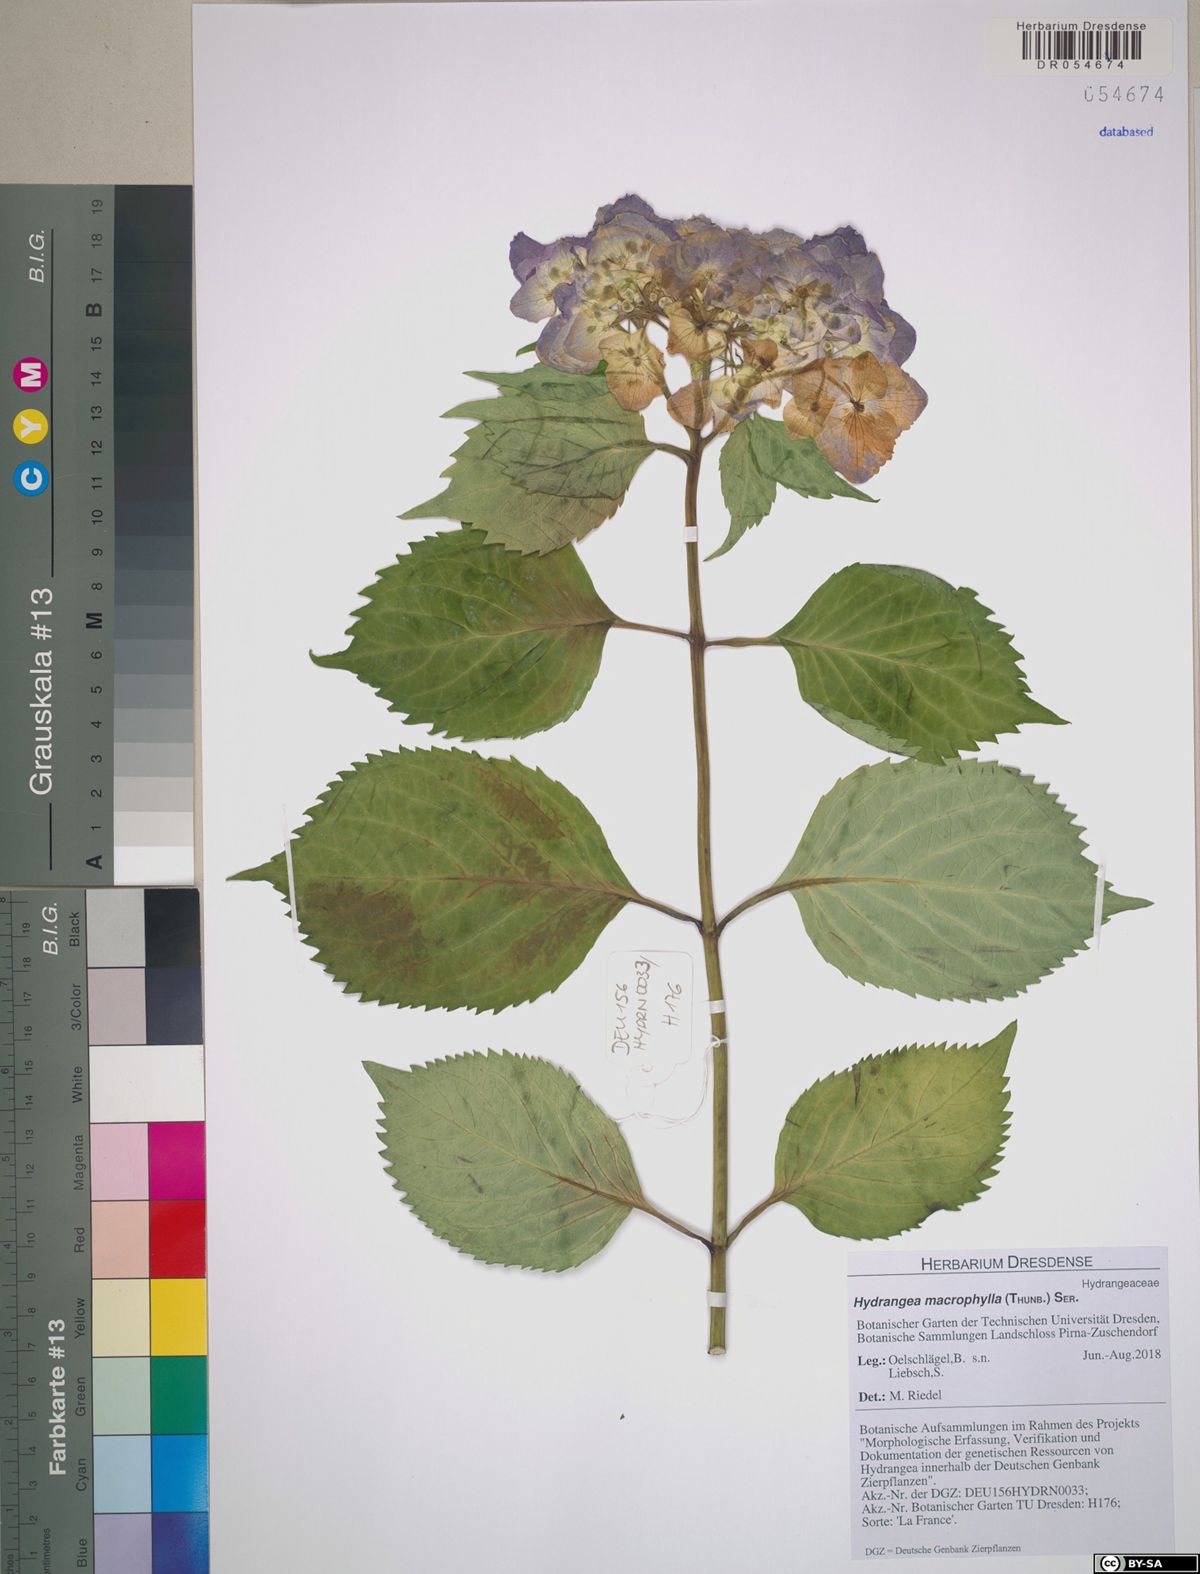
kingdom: Plantae
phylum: Tracheophyta
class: Magnoliopsida
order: Cornales
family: Hydrangeaceae
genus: Hydrangea
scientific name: Hydrangea macrophylla
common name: Hydrangea
